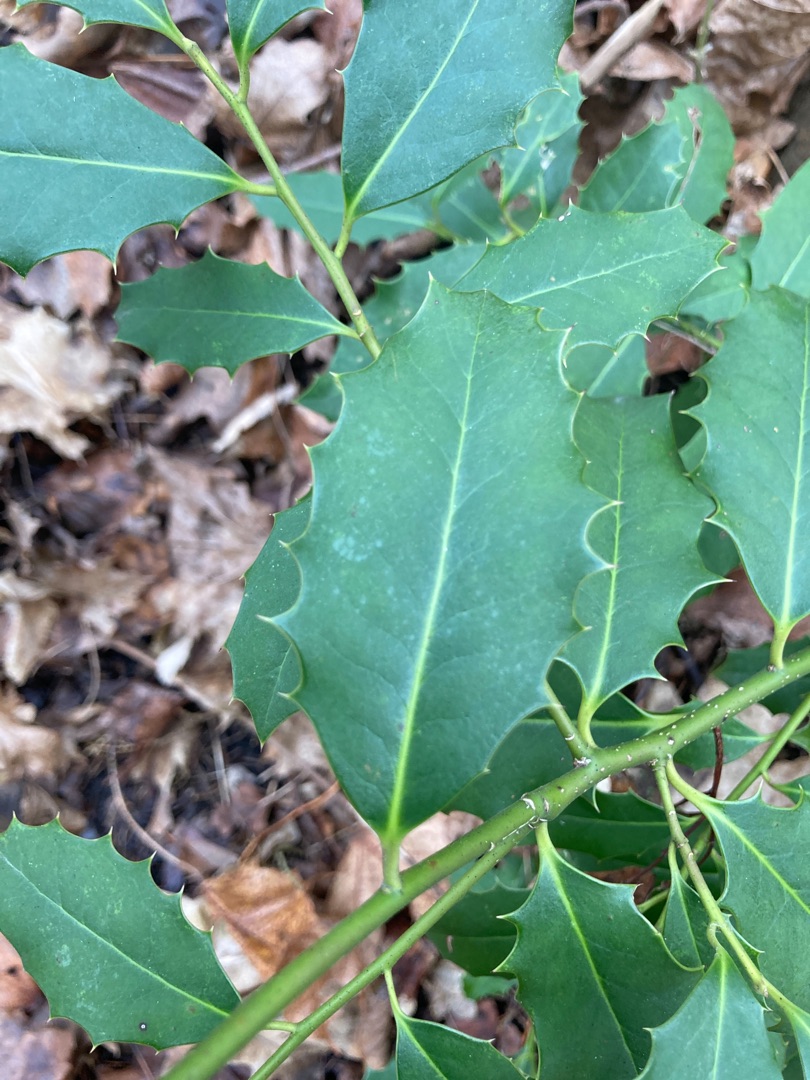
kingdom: Plantae
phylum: Tracheophyta
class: Magnoliopsida
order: Aquifoliales
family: Aquifoliaceae
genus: Ilex
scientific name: Ilex aquifolium
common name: Kristtorn
